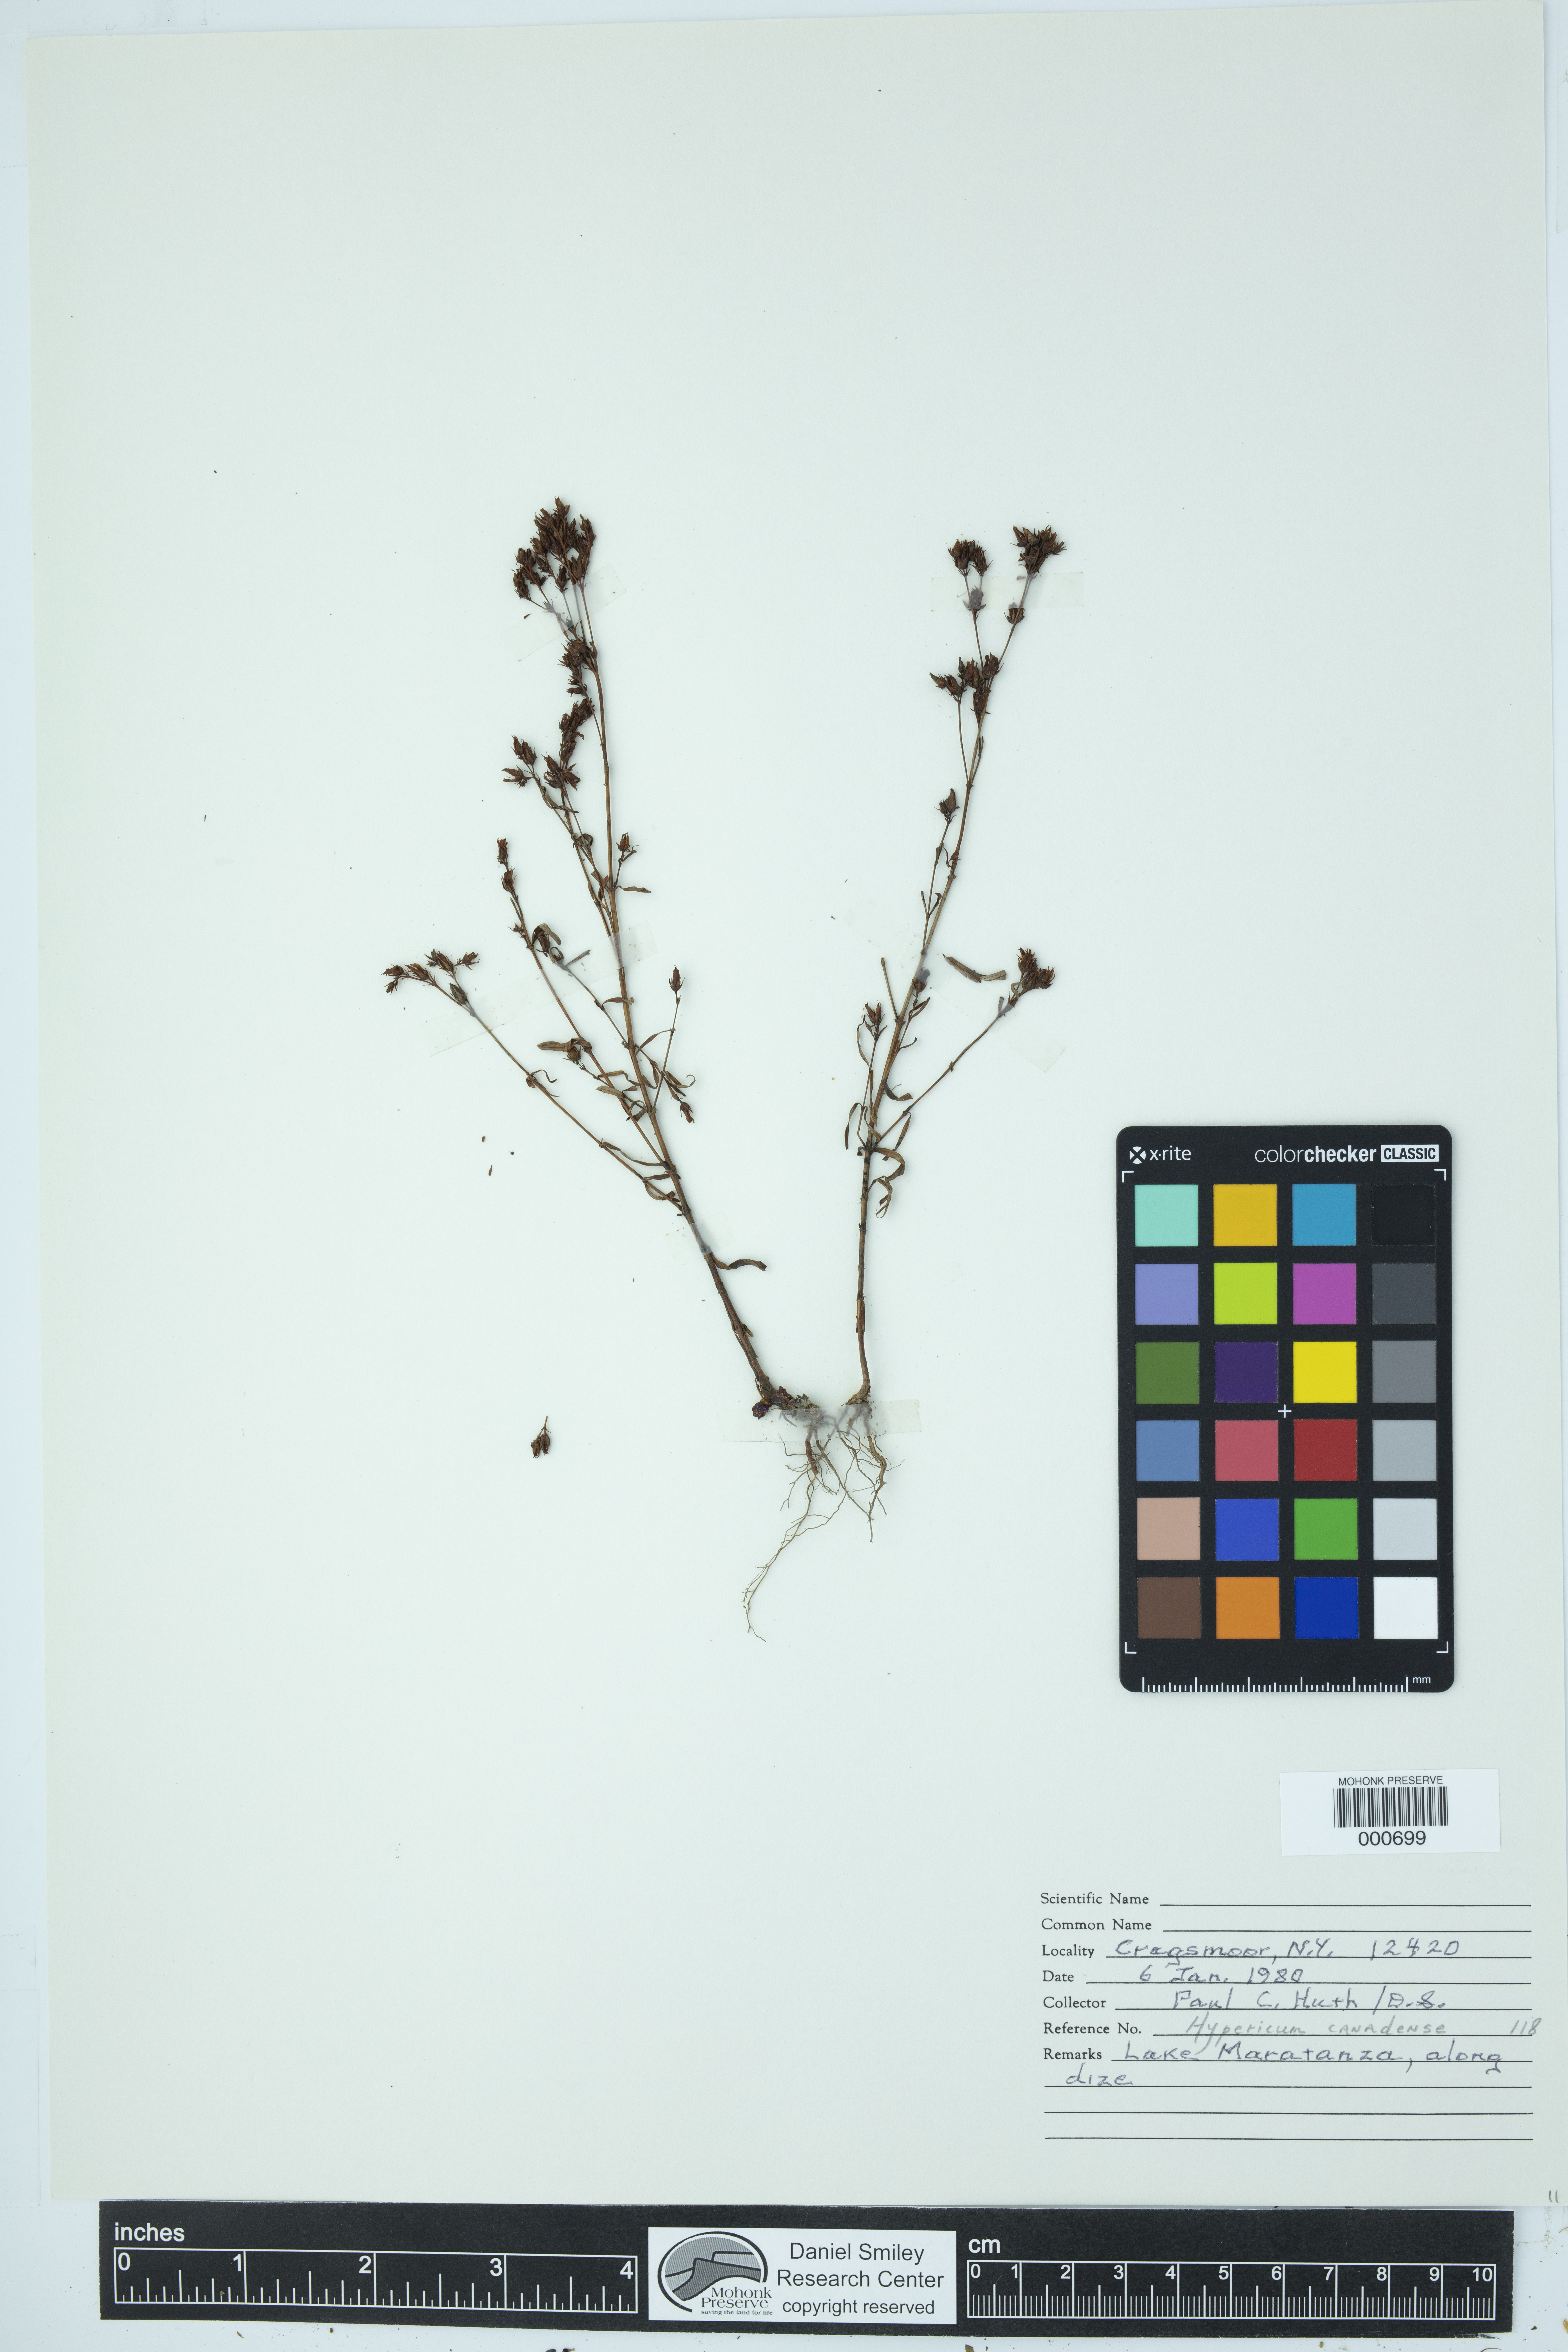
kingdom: Plantae
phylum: Tracheophyta
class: Magnoliopsida
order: Malpighiales
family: Hypericaceae
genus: Hypericum
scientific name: Hypericum canadense
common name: Irish st. john's-wort
